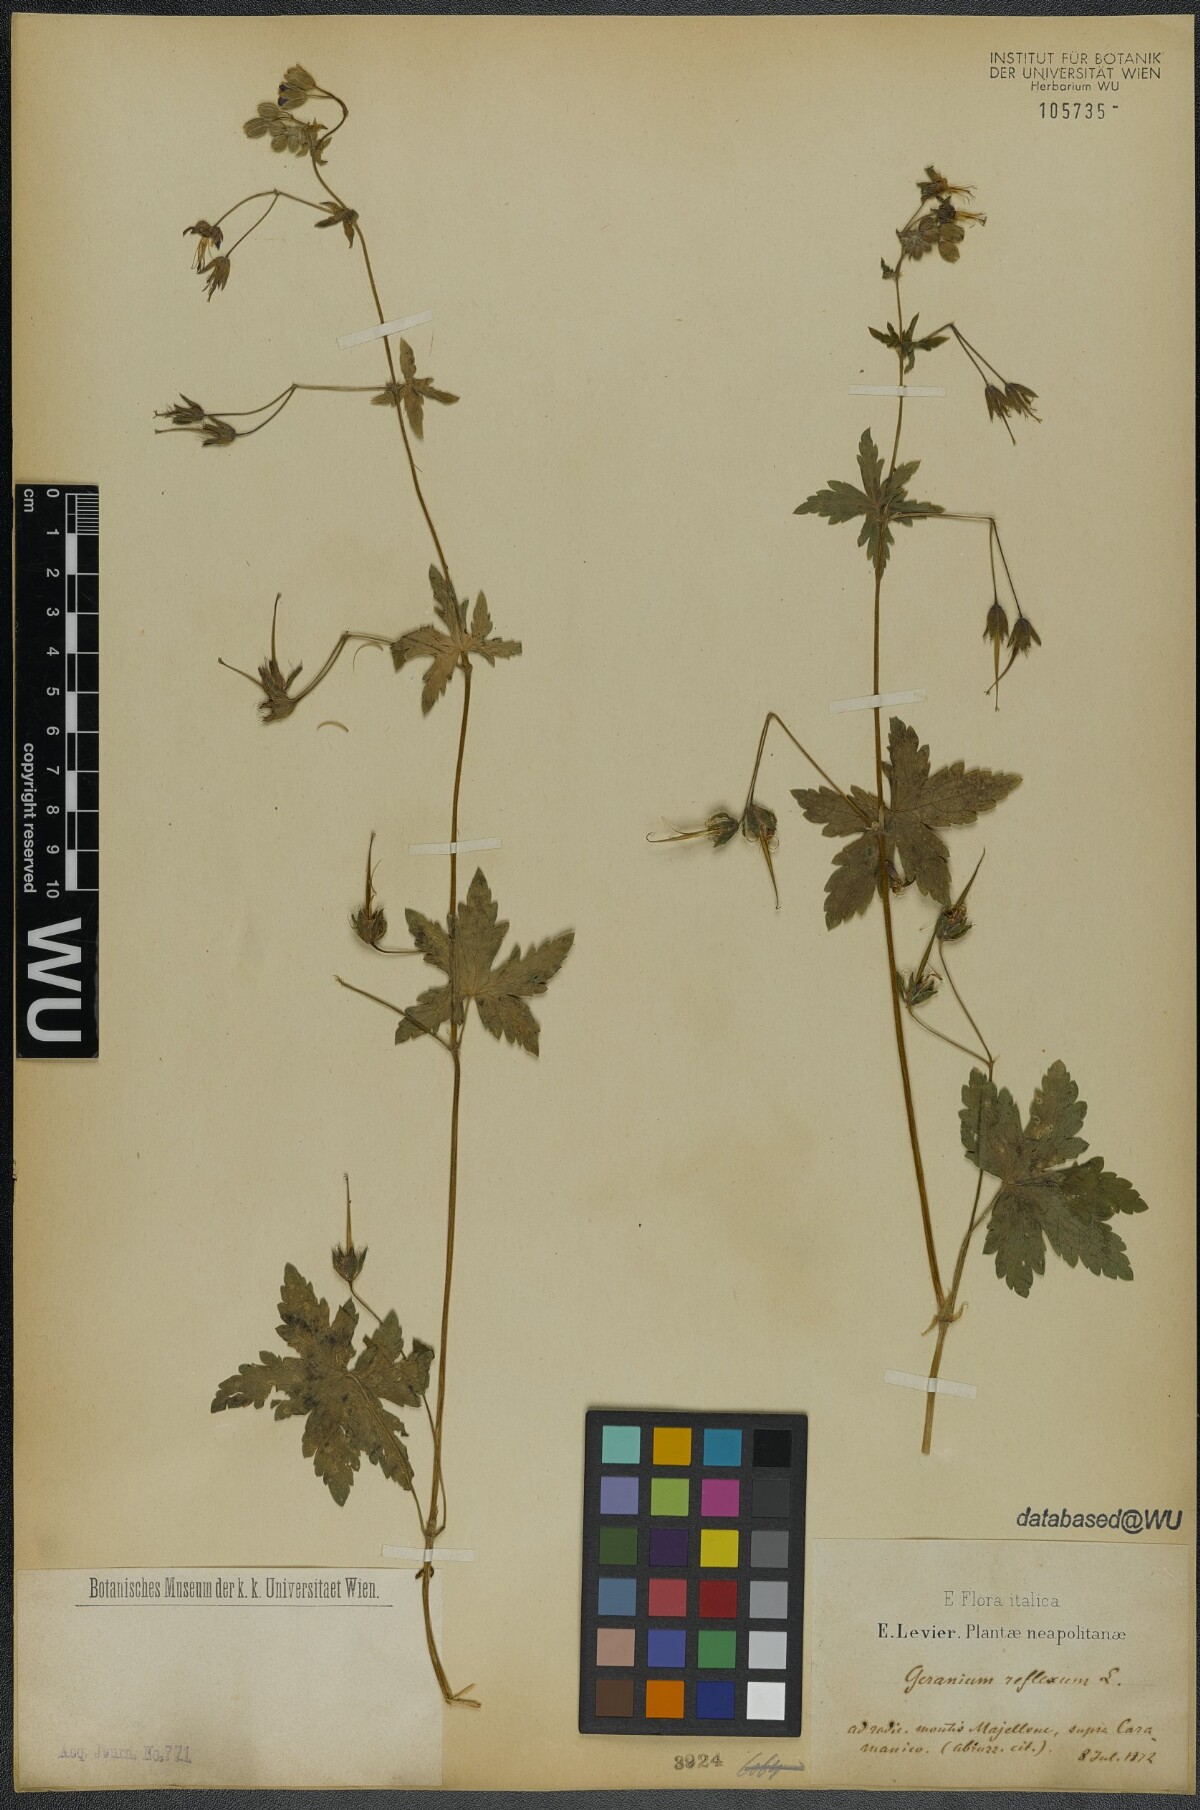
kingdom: Plantae
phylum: Tracheophyta
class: Magnoliopsida
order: Geraniales
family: Geraniaceae
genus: Geranium
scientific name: Geranium reflexum
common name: Reflexed crane's-bill
